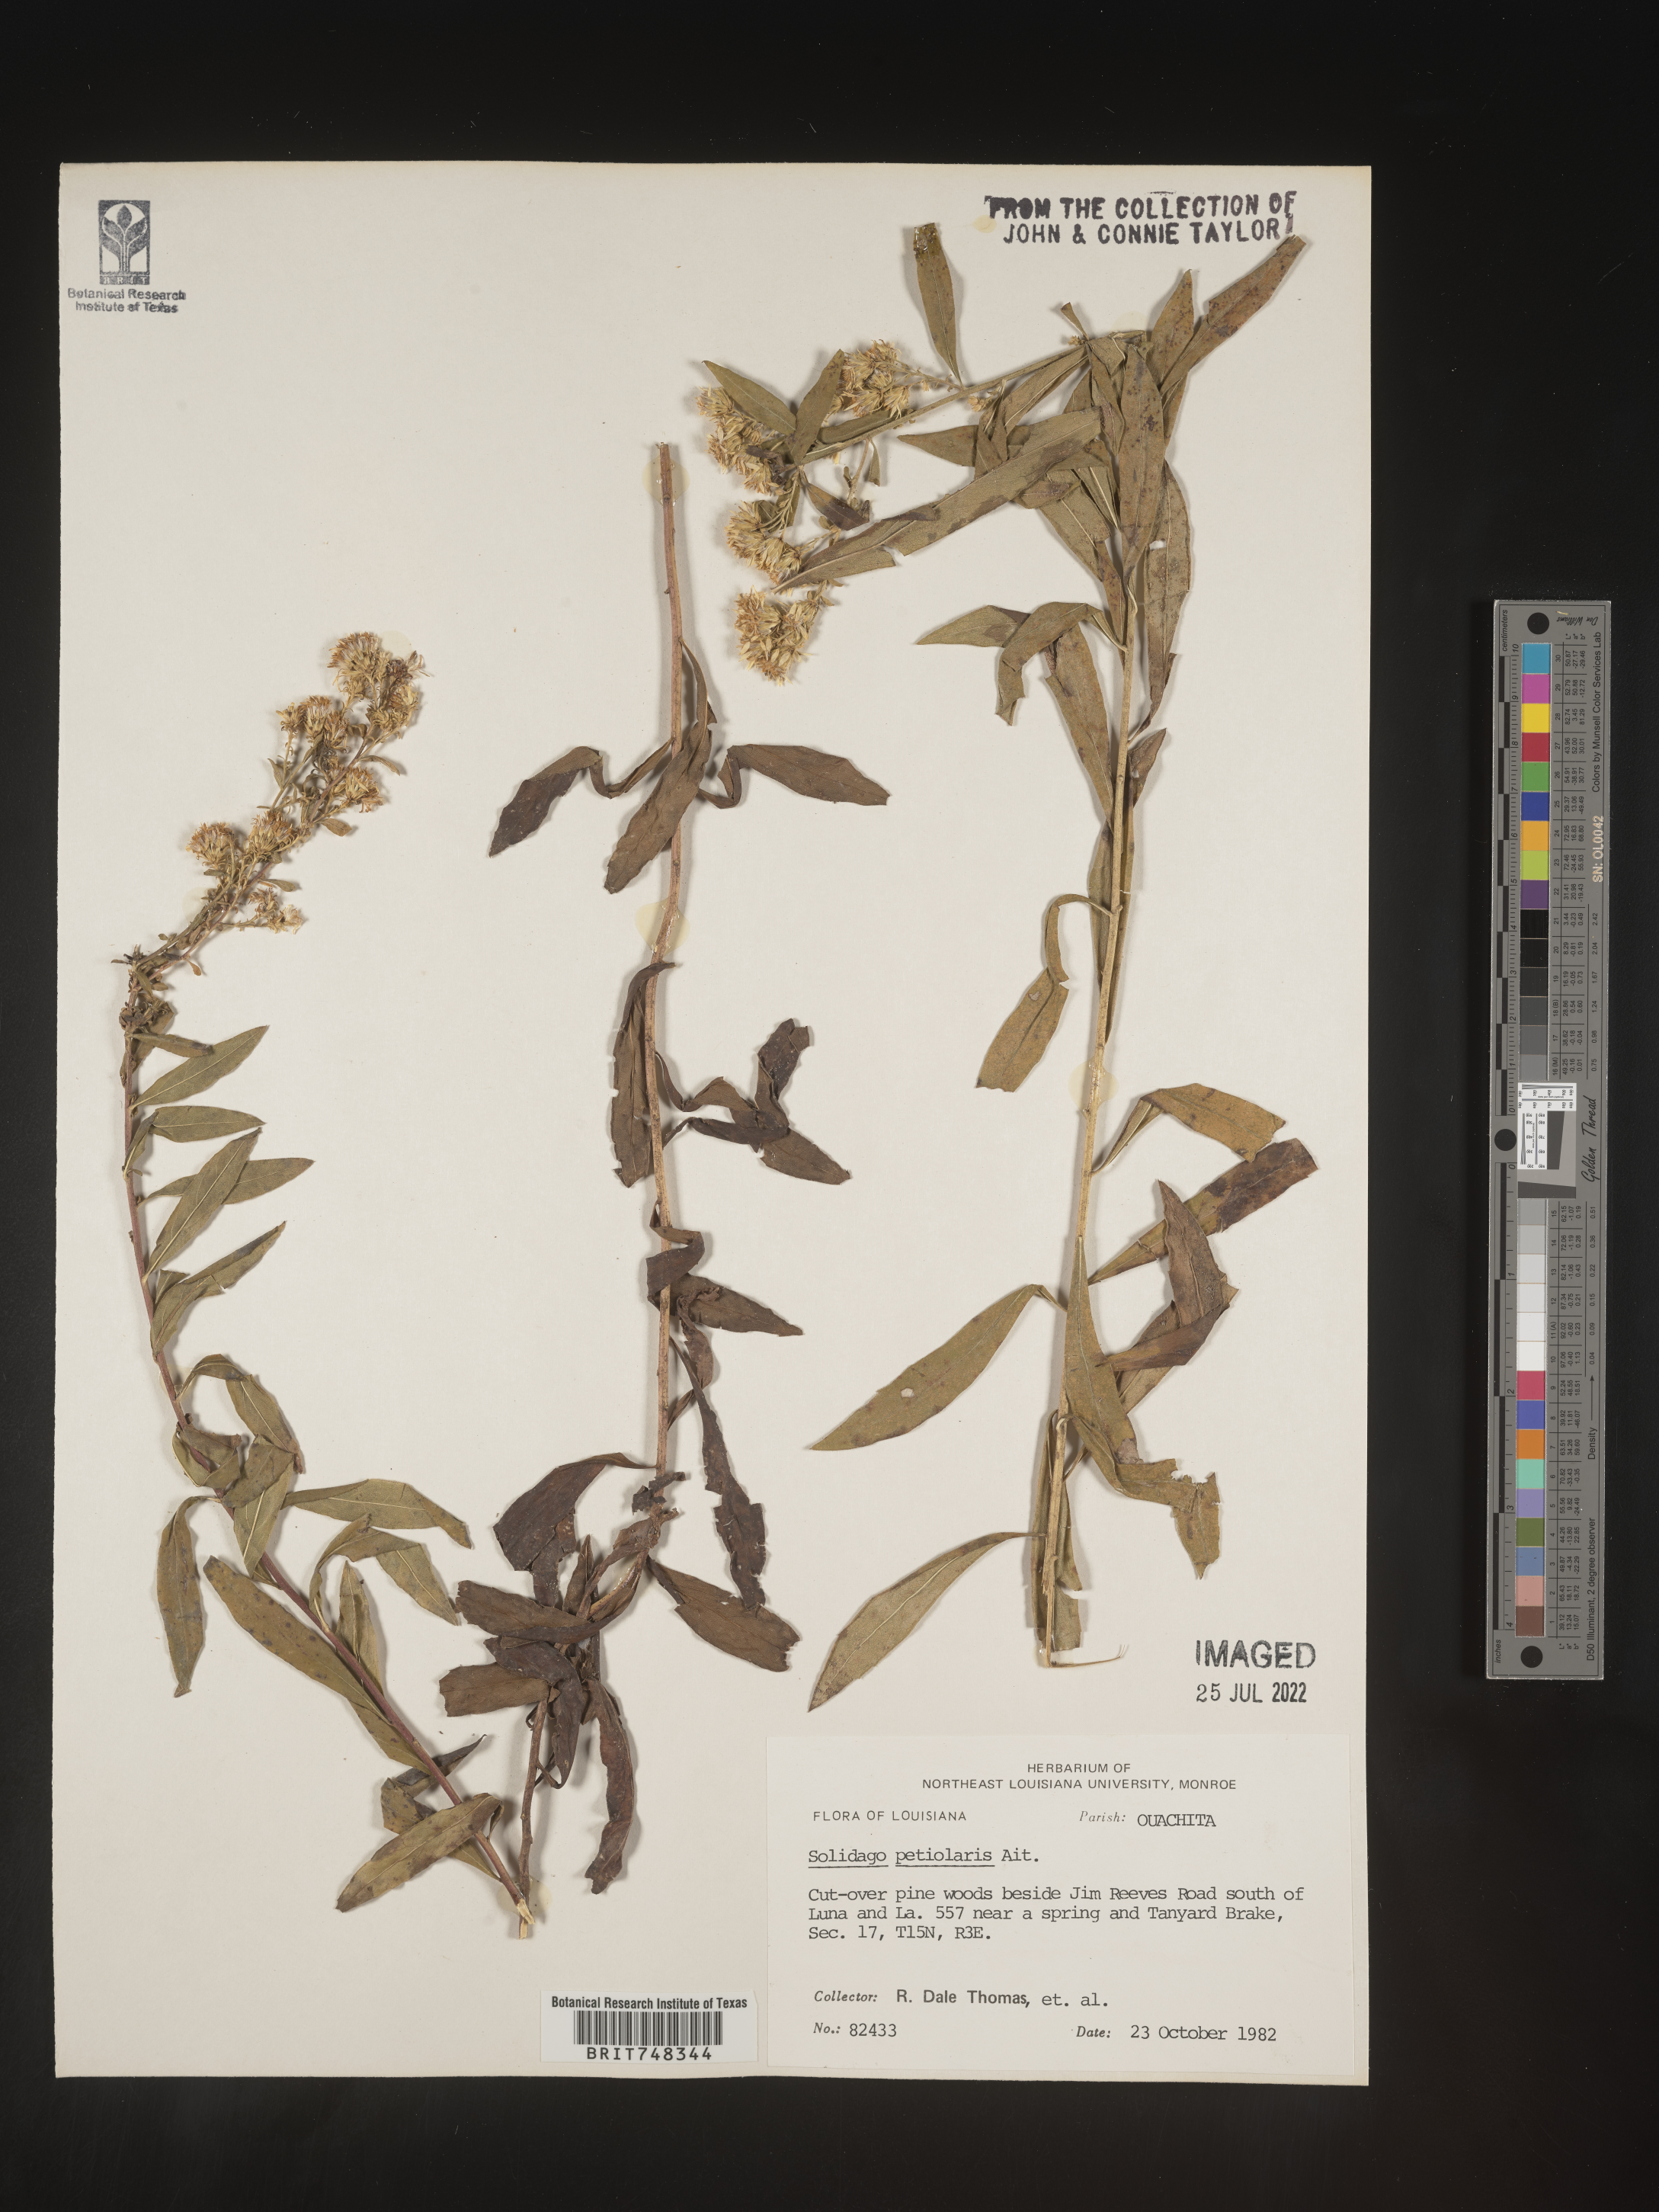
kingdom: Plantae
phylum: Tracheophyta
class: Magnoliopsida
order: Asterales
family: Asteraceae
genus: Solidago
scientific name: Solidago petiolaris
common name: Downy ragged goldenrod
